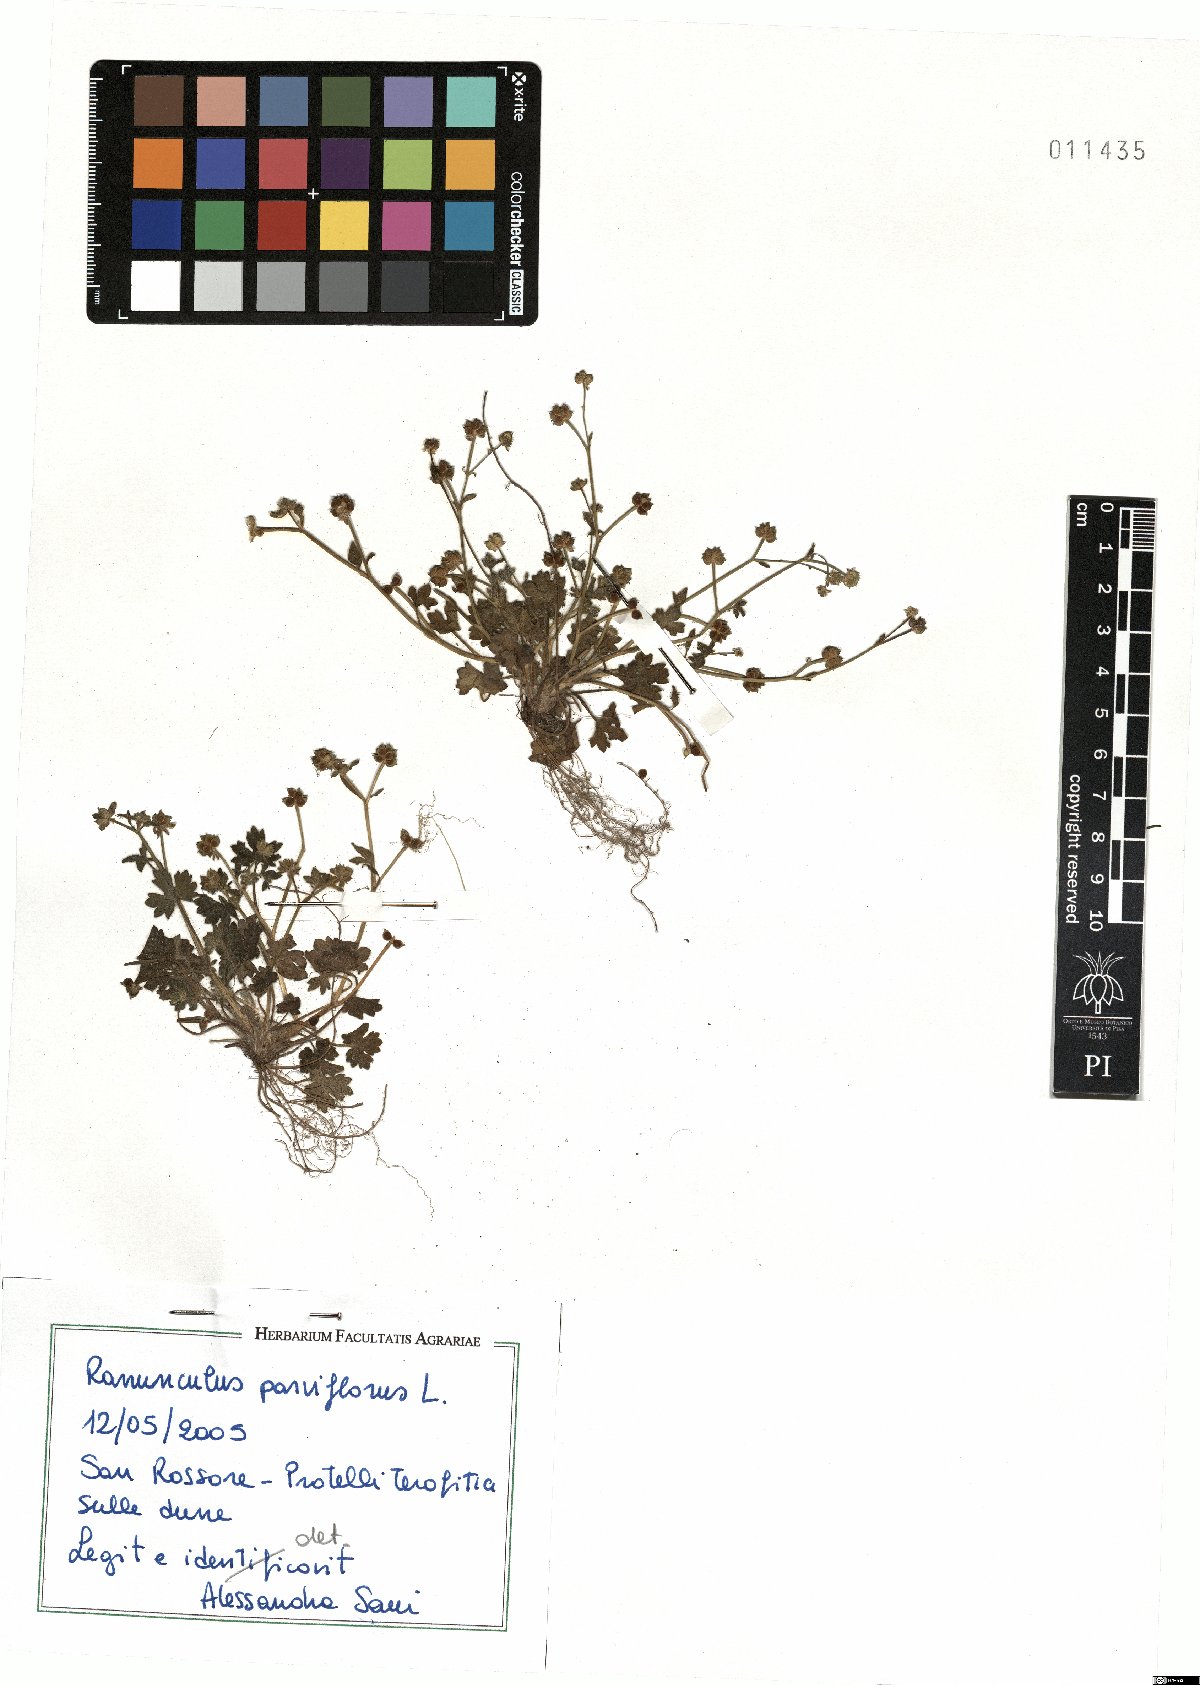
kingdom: Plantae
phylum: Tracheophyta
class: Magnoliopsida
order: Ranunculales
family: Ranunculaceae
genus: Ranunculus
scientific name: Ranunculus parviflorus
